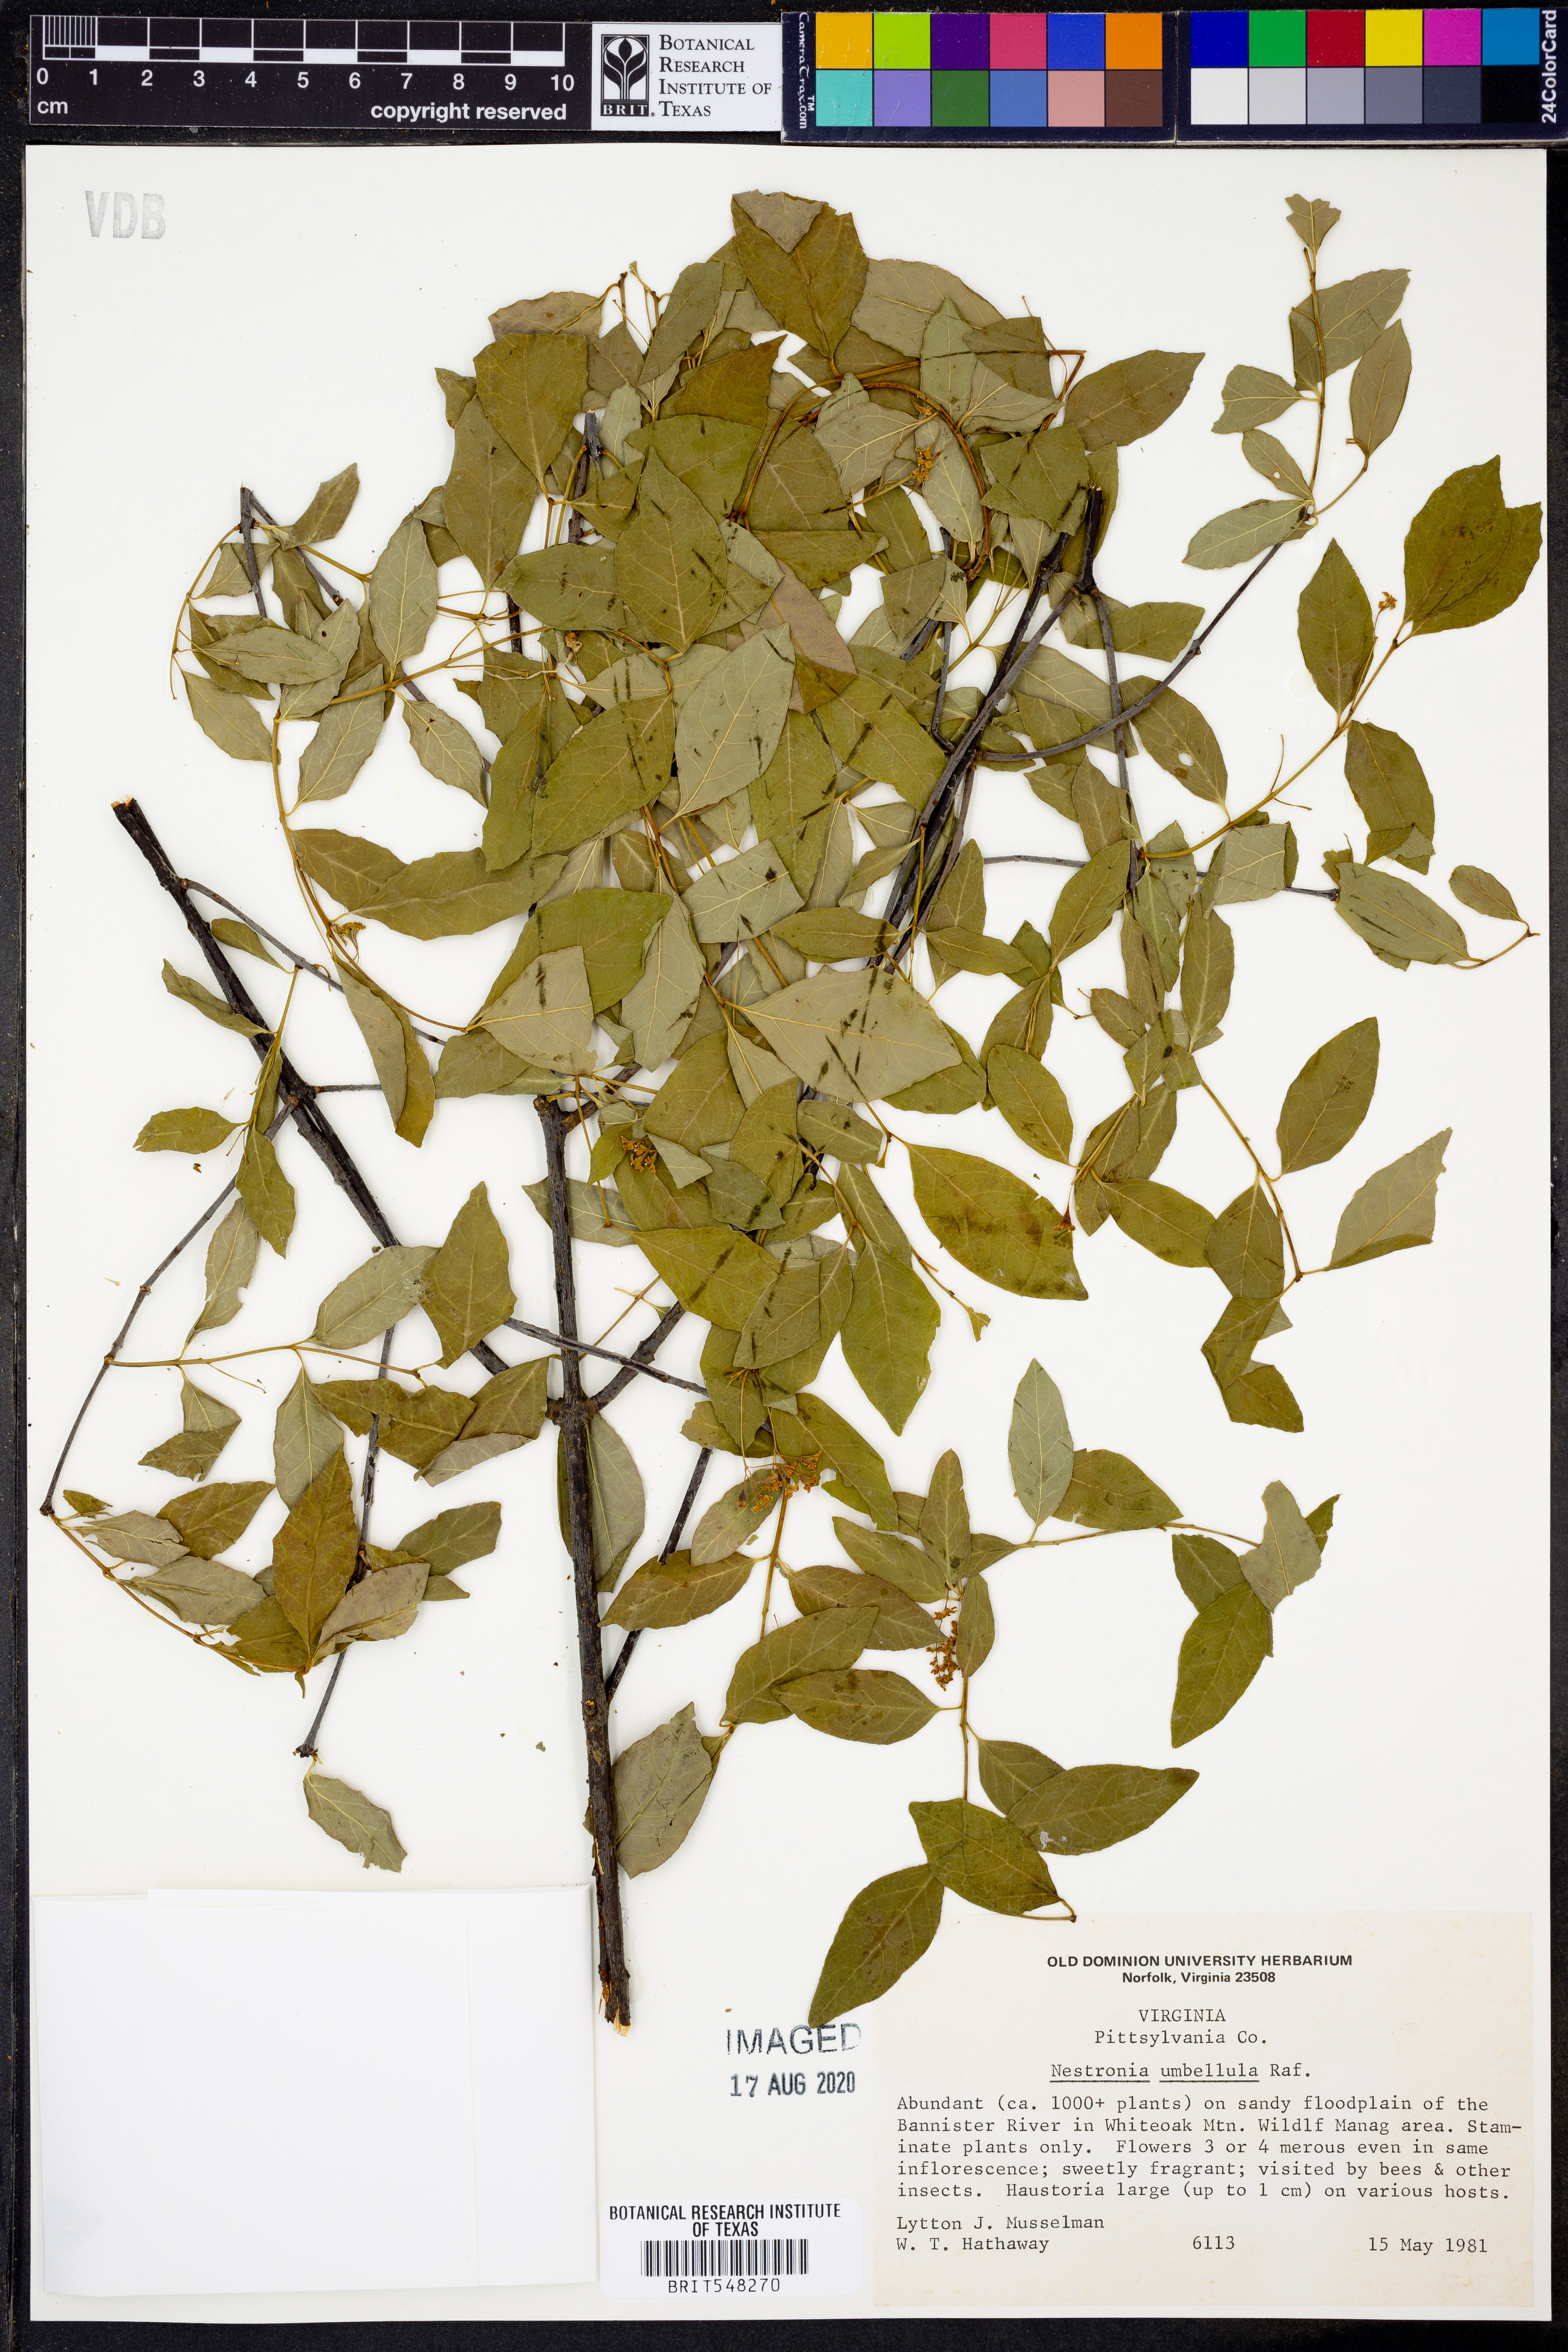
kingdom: Plantae
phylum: Tracheophyta
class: Magnoliopsida
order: Santalales
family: Santalaceae
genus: Nestronia
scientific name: Nestronia umbellula
